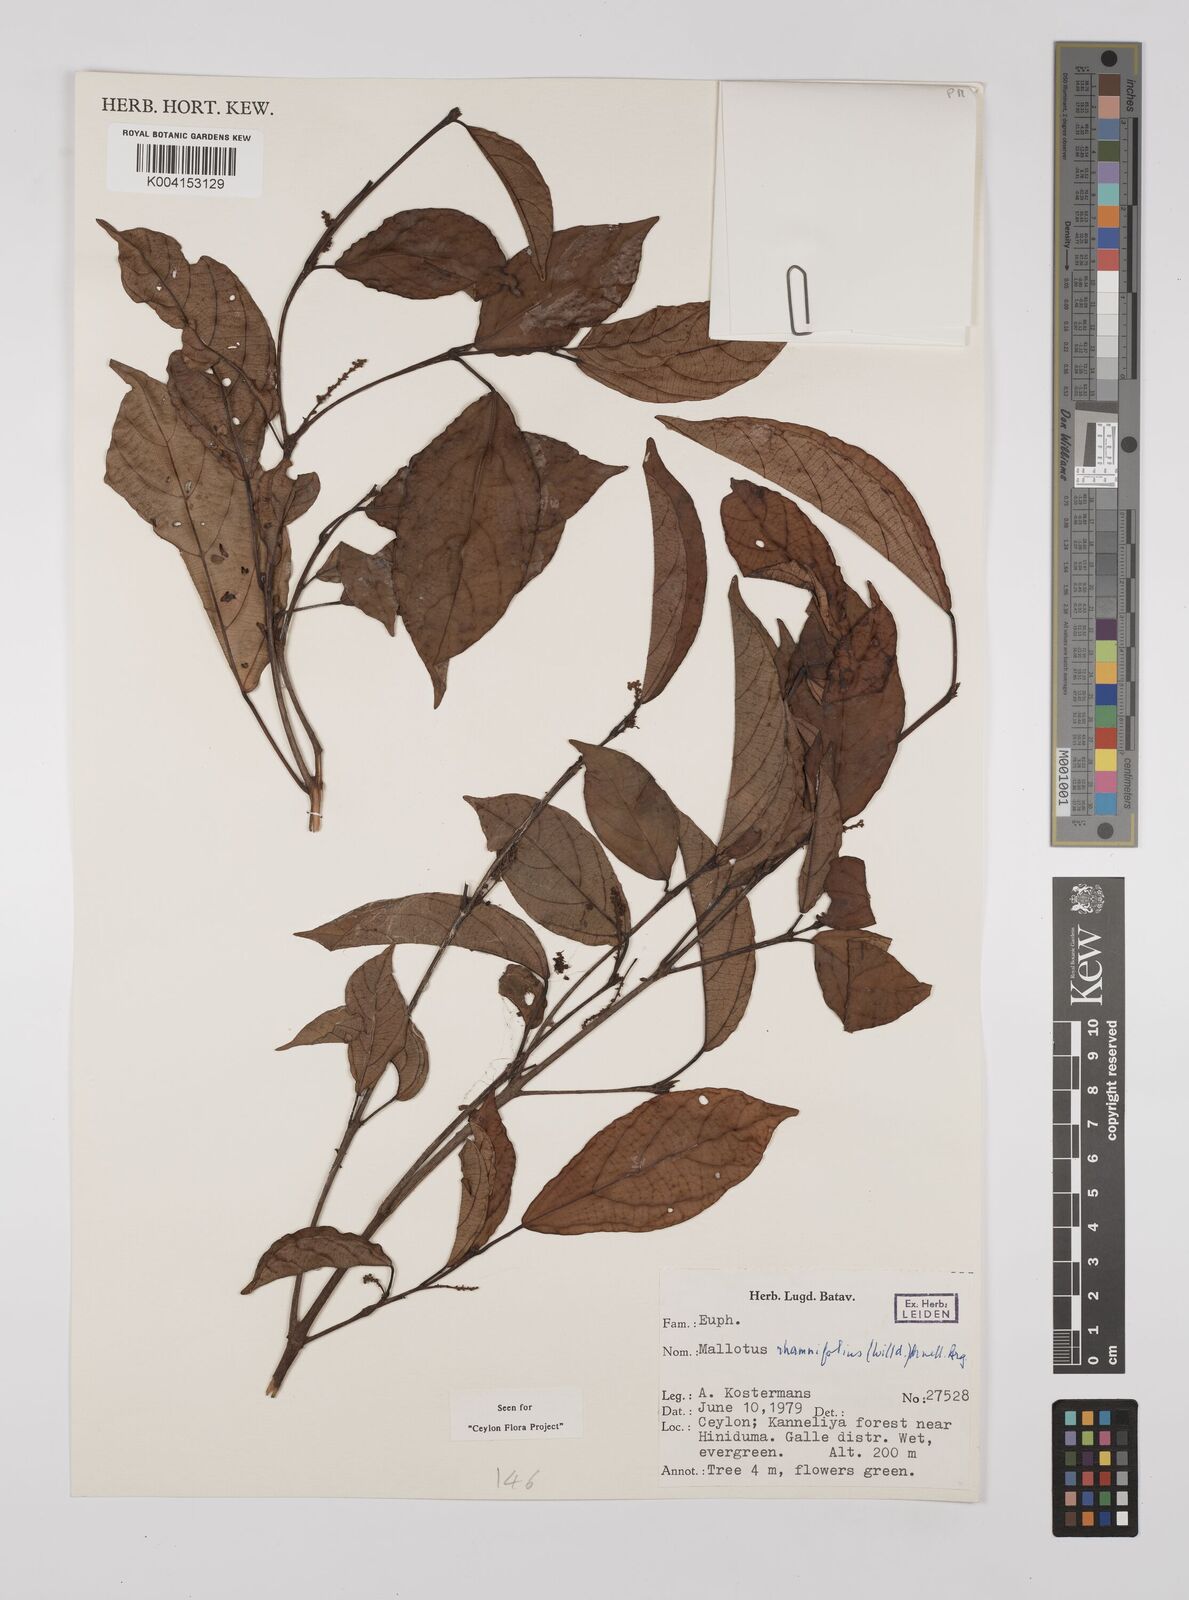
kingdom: Plantae
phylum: Tracheophyta
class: Magnoliopsida
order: Malpighiales
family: Euphorbiaceae
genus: Mallotus
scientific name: Mallotus rhamnifolius
